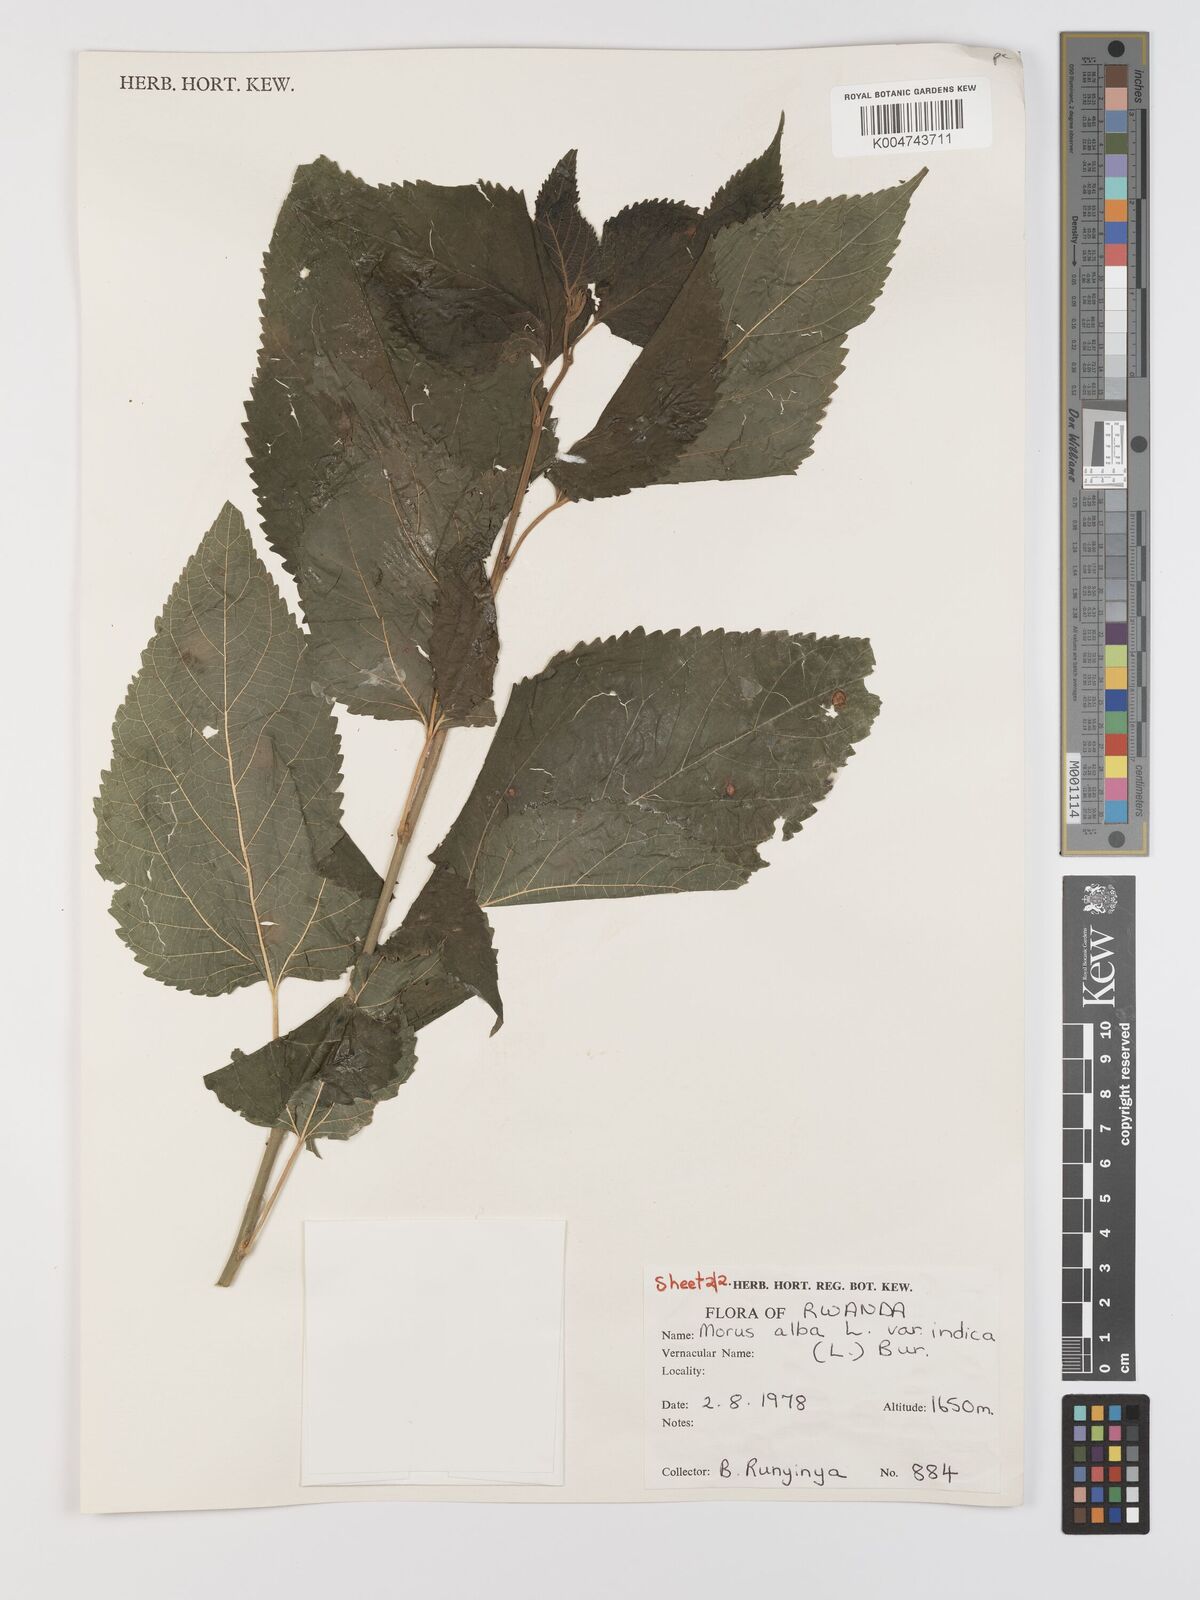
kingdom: Plantae
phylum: Tracheophyta
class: Magnoliopsida
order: Rosales
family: Moraceae
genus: Morus
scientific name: Morus alba
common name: White mulberry
